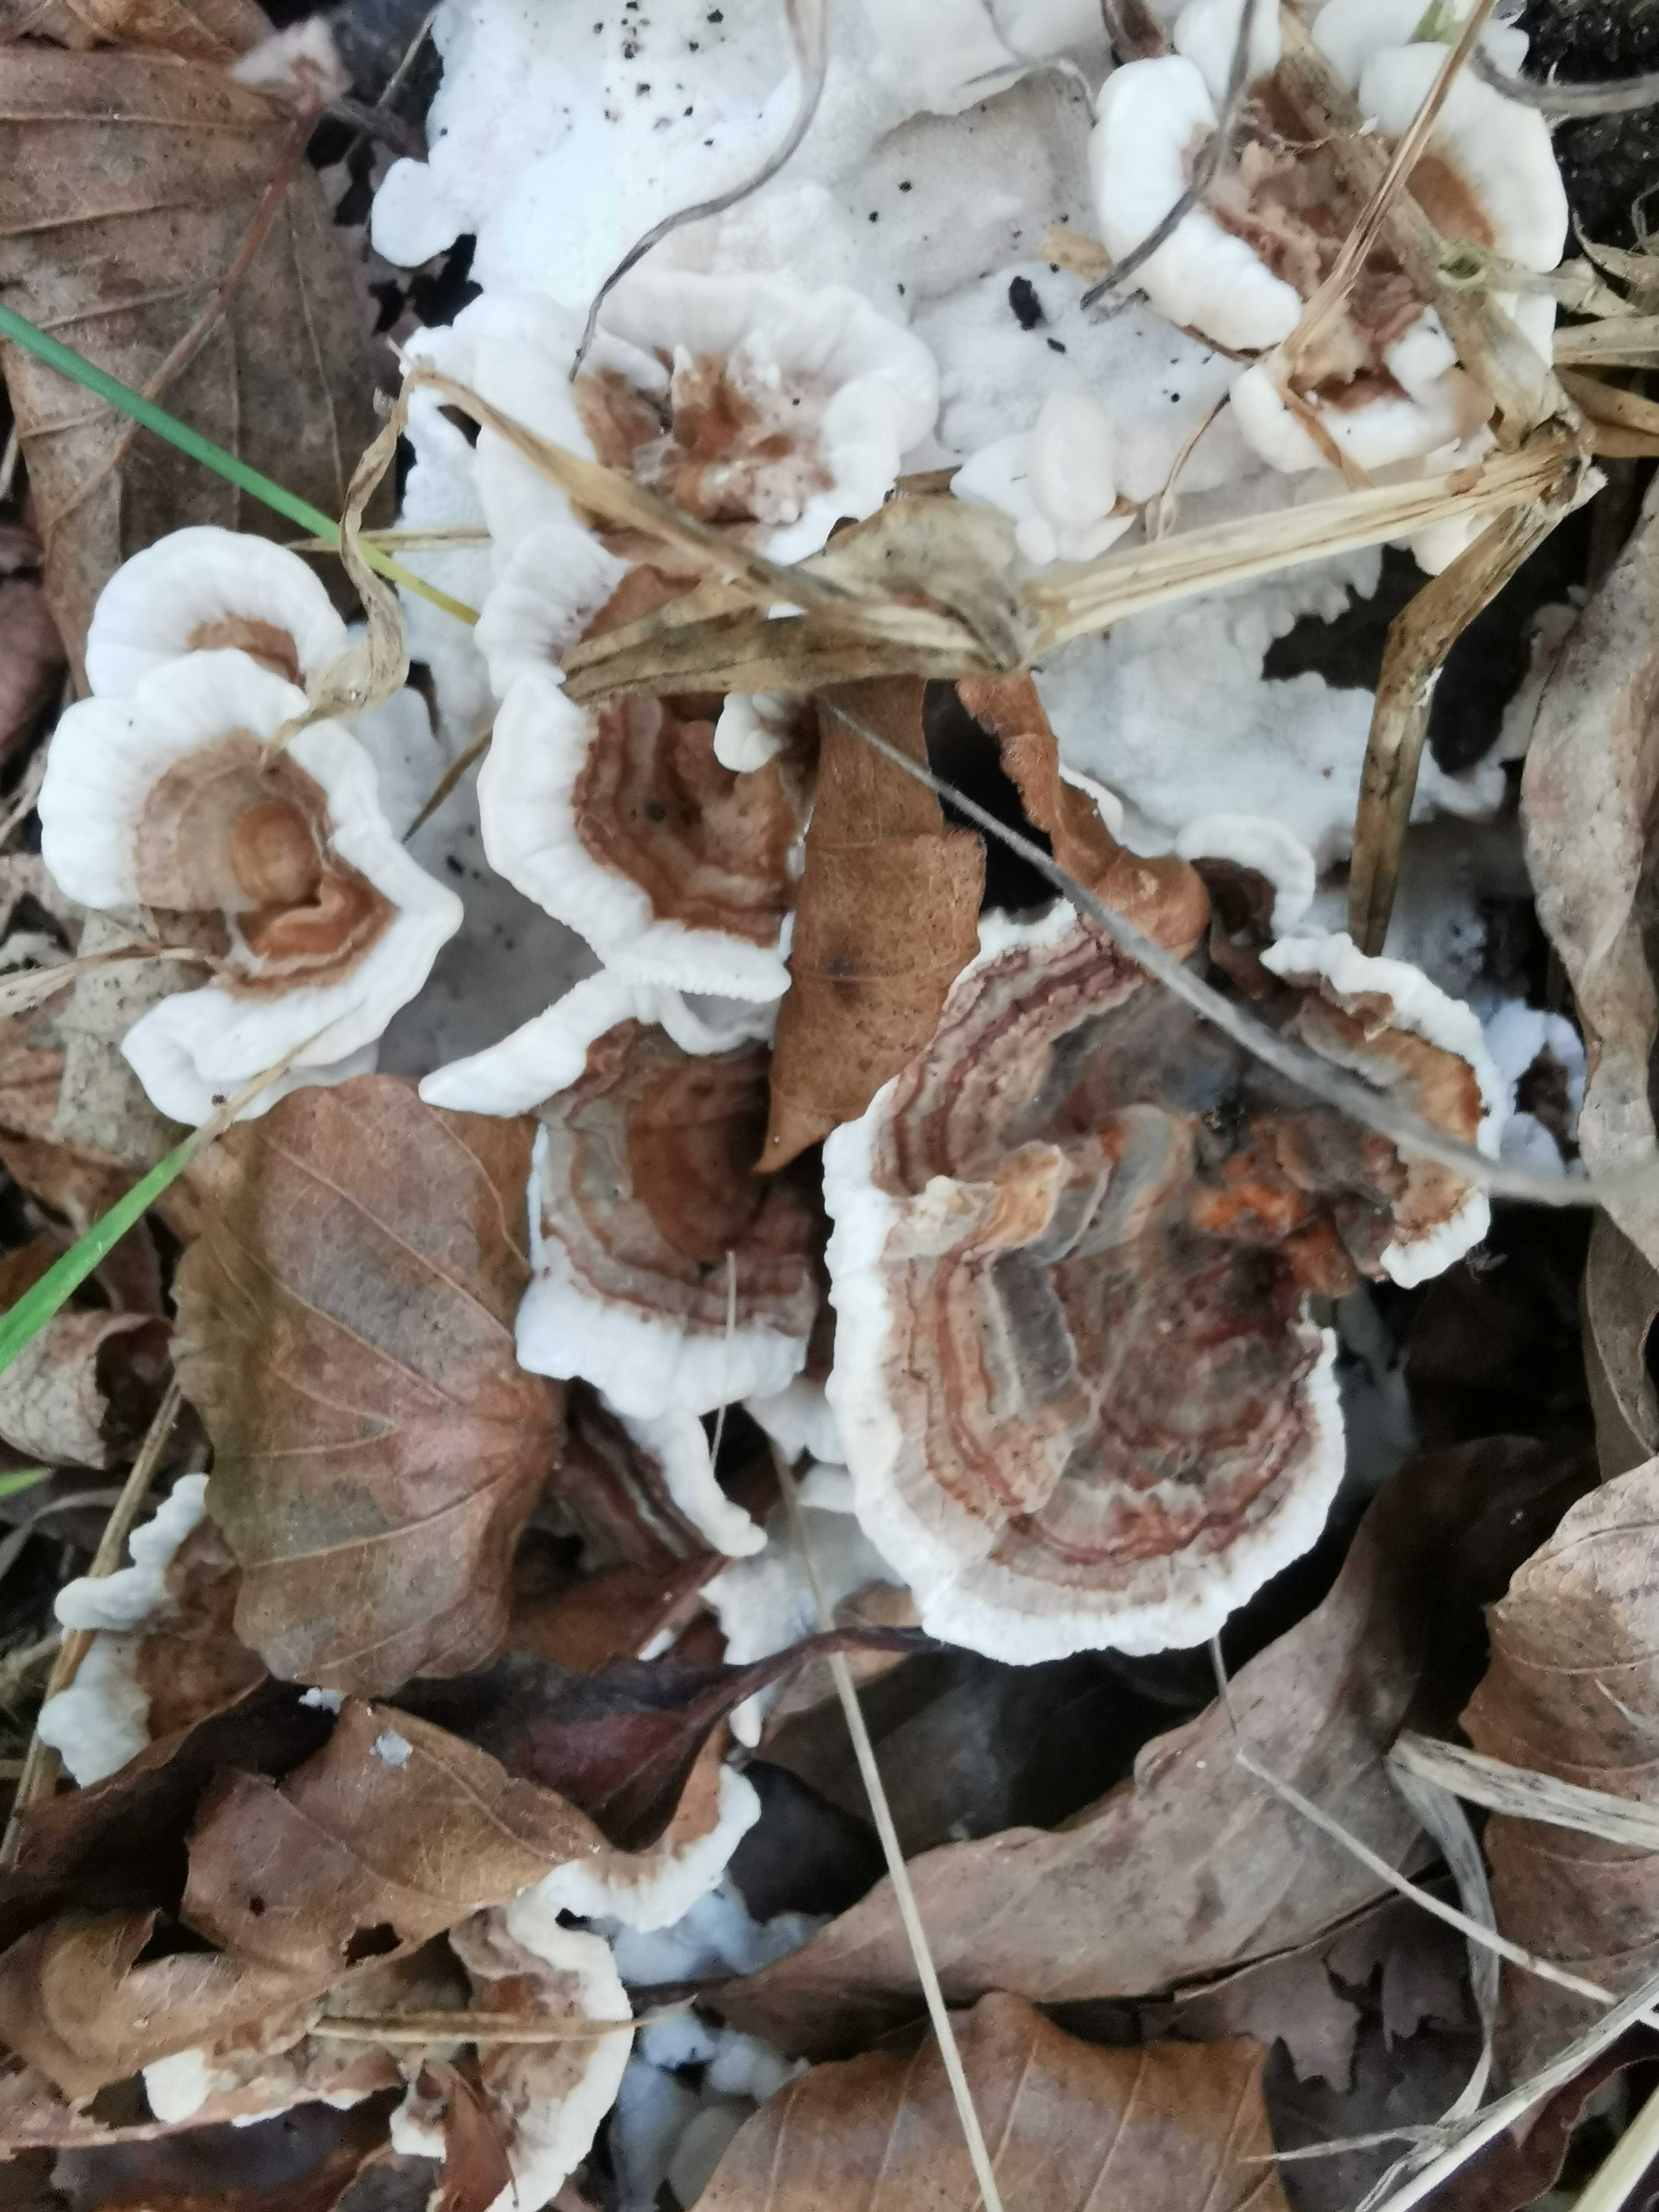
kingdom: Fungi
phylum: Basidiomycota
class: Agaricomycetes
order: Polyporales
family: Polyporaceae
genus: Trametes
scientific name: Trametes versicolor
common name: broget læderporesvamp
